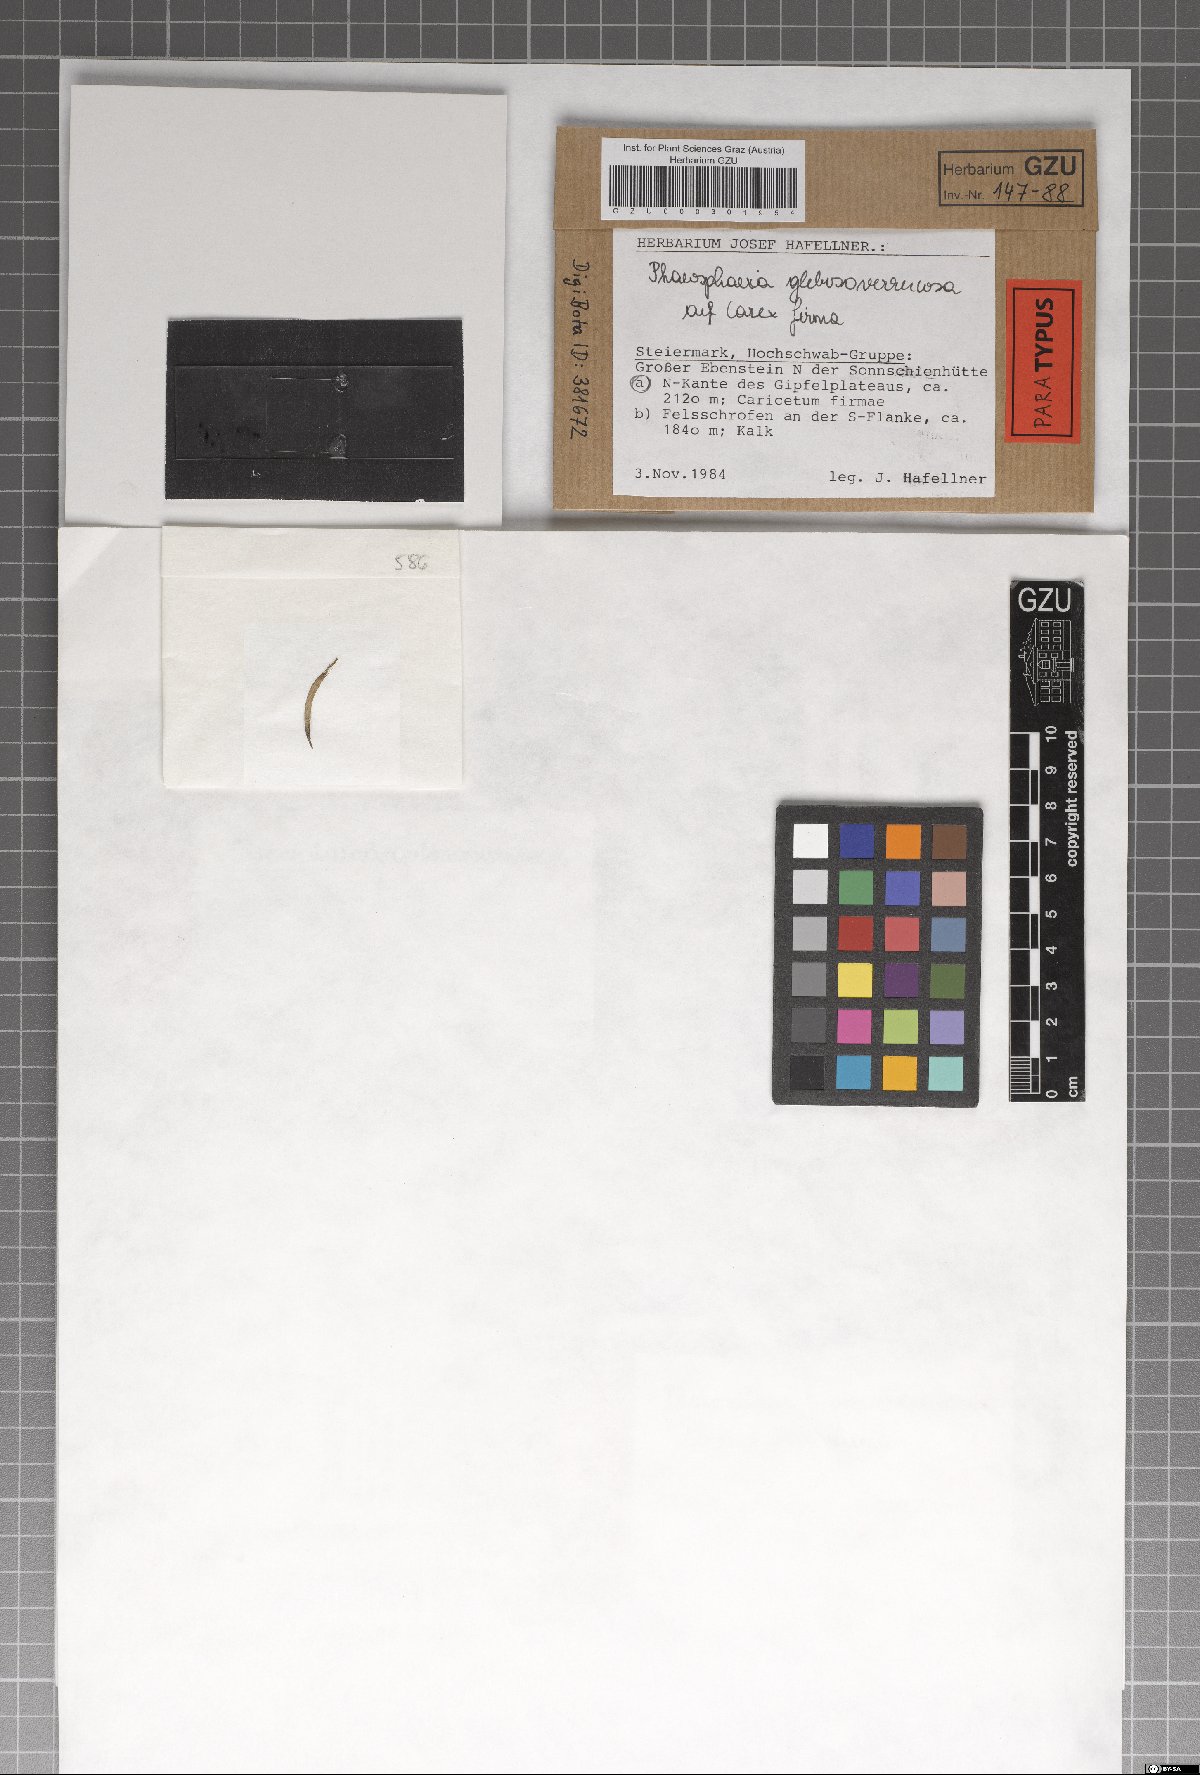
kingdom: Fungi
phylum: Ascomycota
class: Dothideomycetes
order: Pleosporales
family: Phaeosphaeriaceae
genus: Phaeosphaeria
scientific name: Phaeosphaeria glebosoverrucosa
